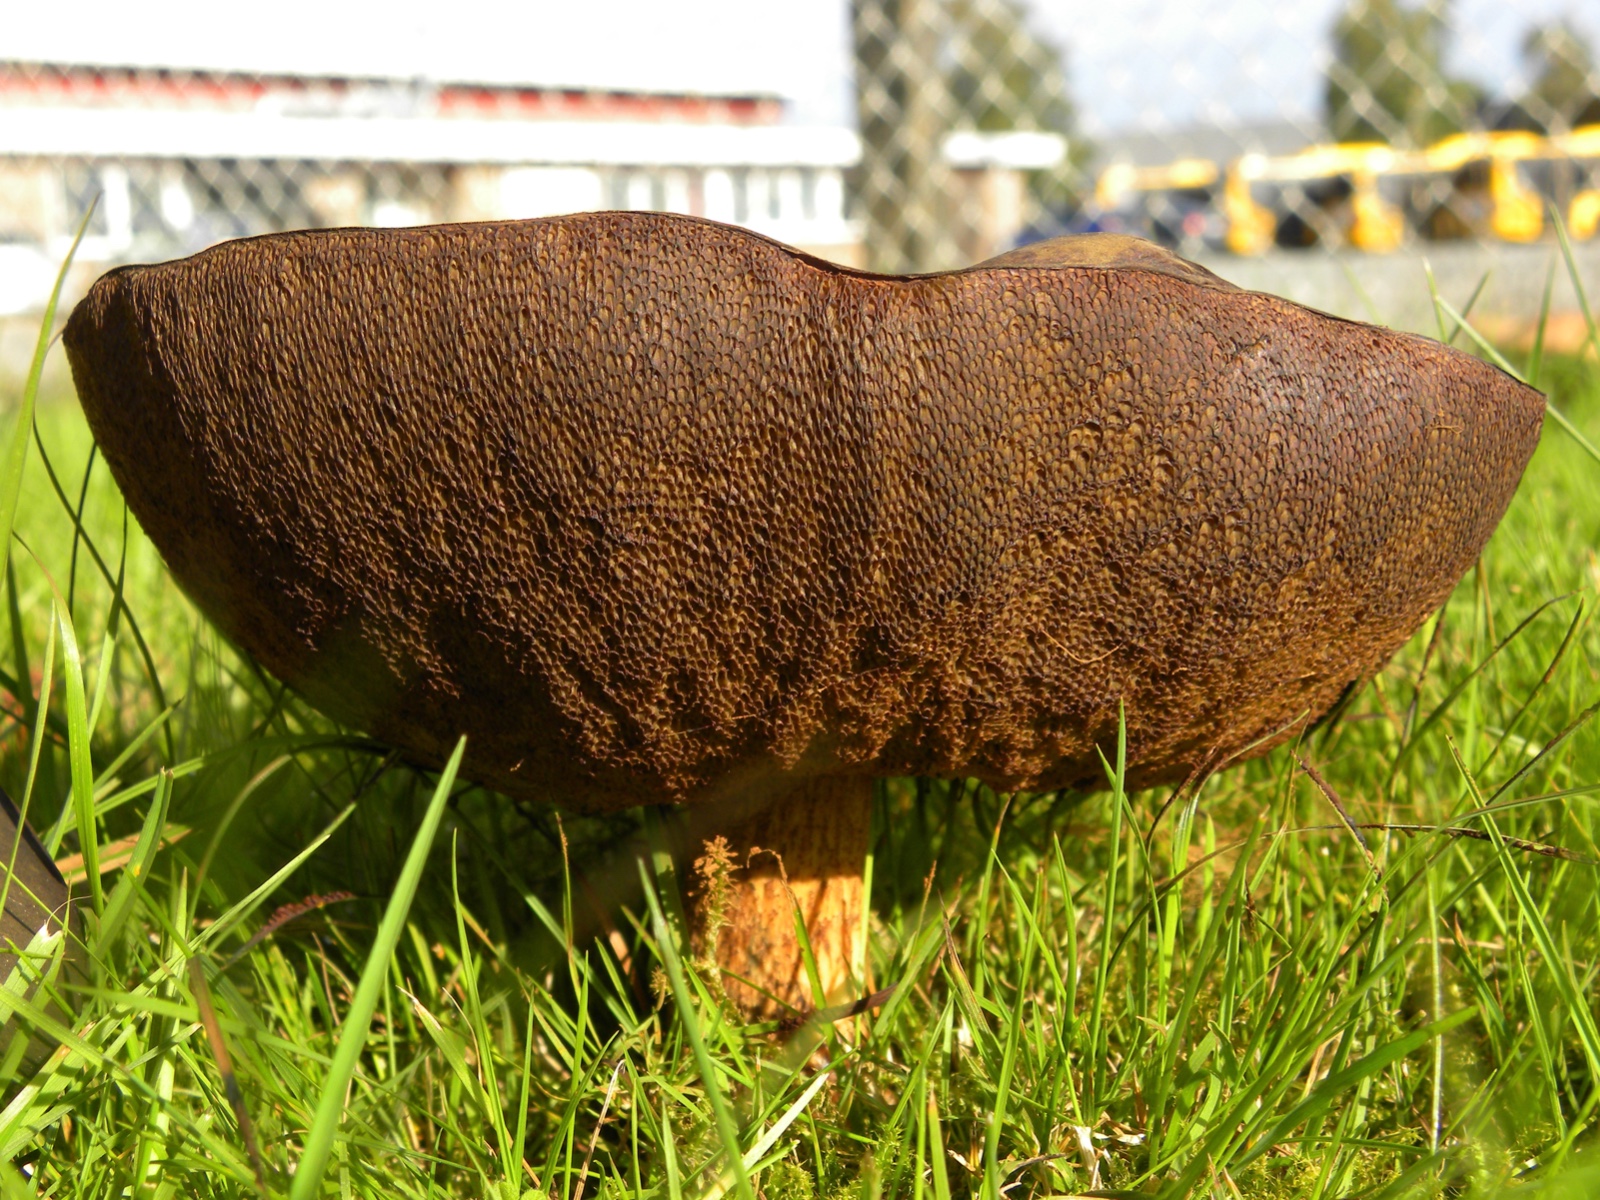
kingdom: Fungi
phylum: Basidiomycota
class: Agaricomycetes
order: Boletales
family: Boletaceae
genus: Suillellus
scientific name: Suillellus luridus
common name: netstokket indigorørhat
